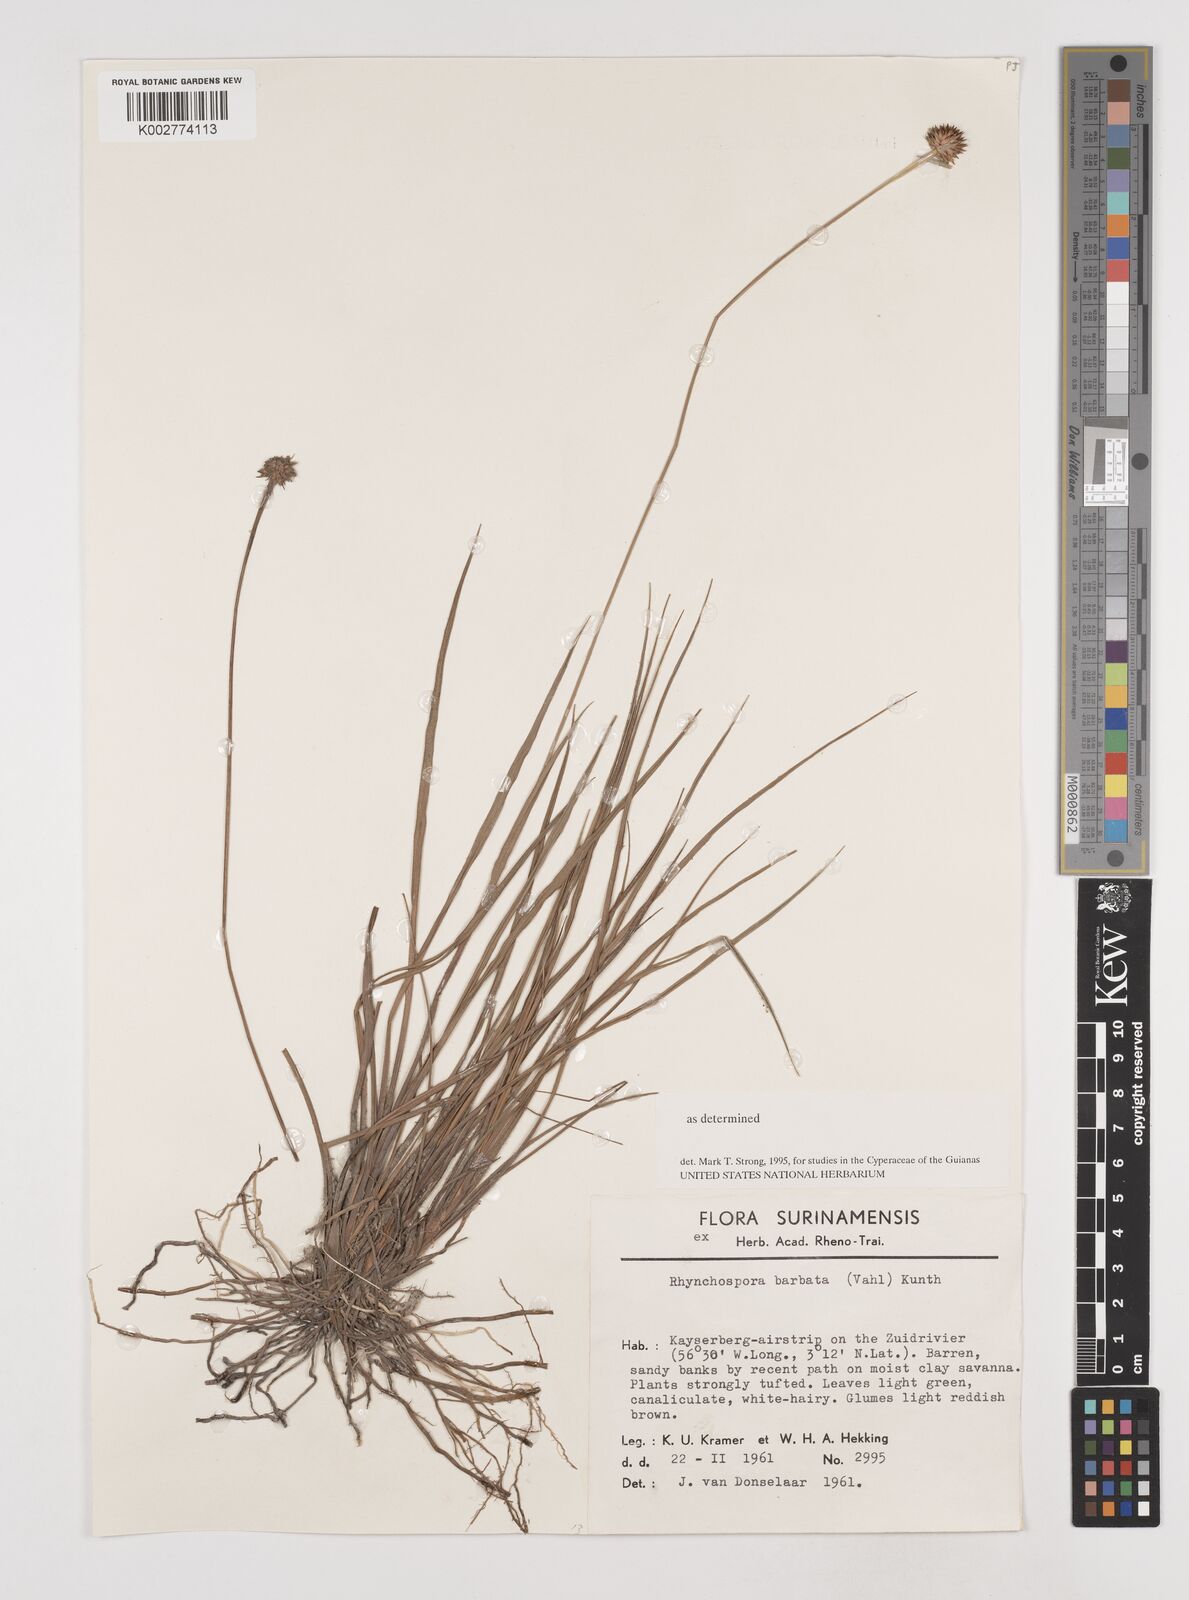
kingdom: Plantae
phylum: Tracheophyta
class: Liliopsida
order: Poales
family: Cyperaceae
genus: Rhynchospora
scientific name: Rhynchospora barbata
